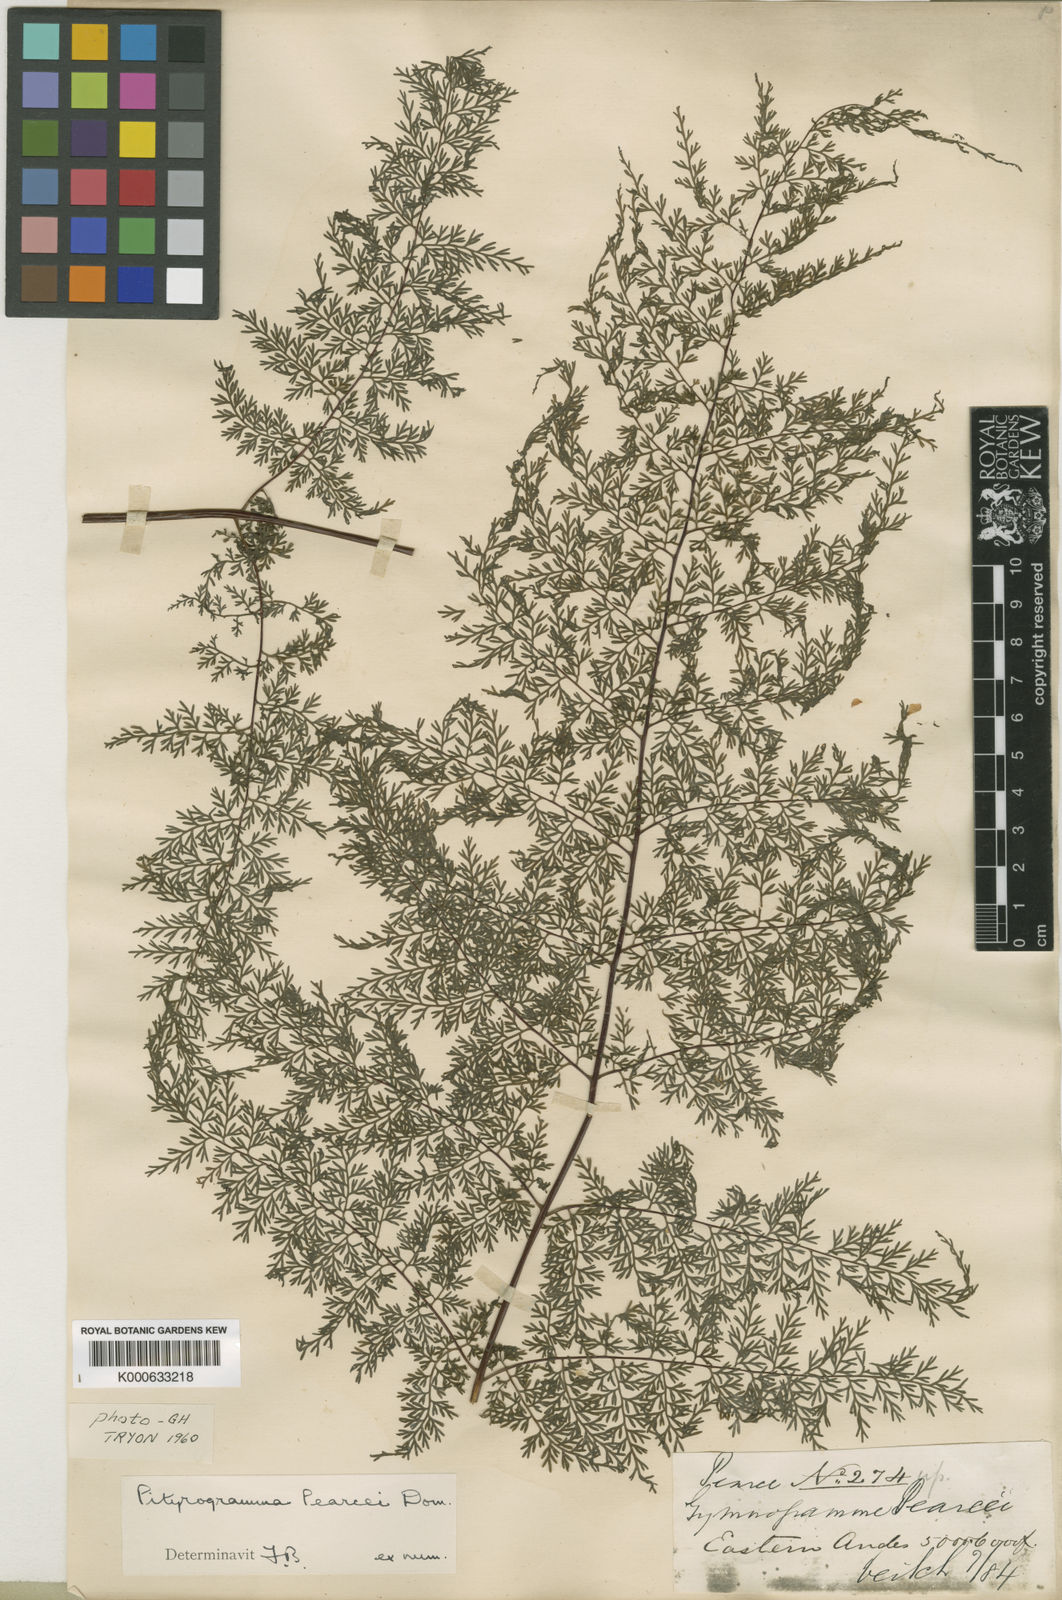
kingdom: Plantae
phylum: Tracheophyta
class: Polypodiopsida
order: Polypodiales
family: Pteridaceae
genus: Pityrogramma
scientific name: Pityrogramma pearcei
